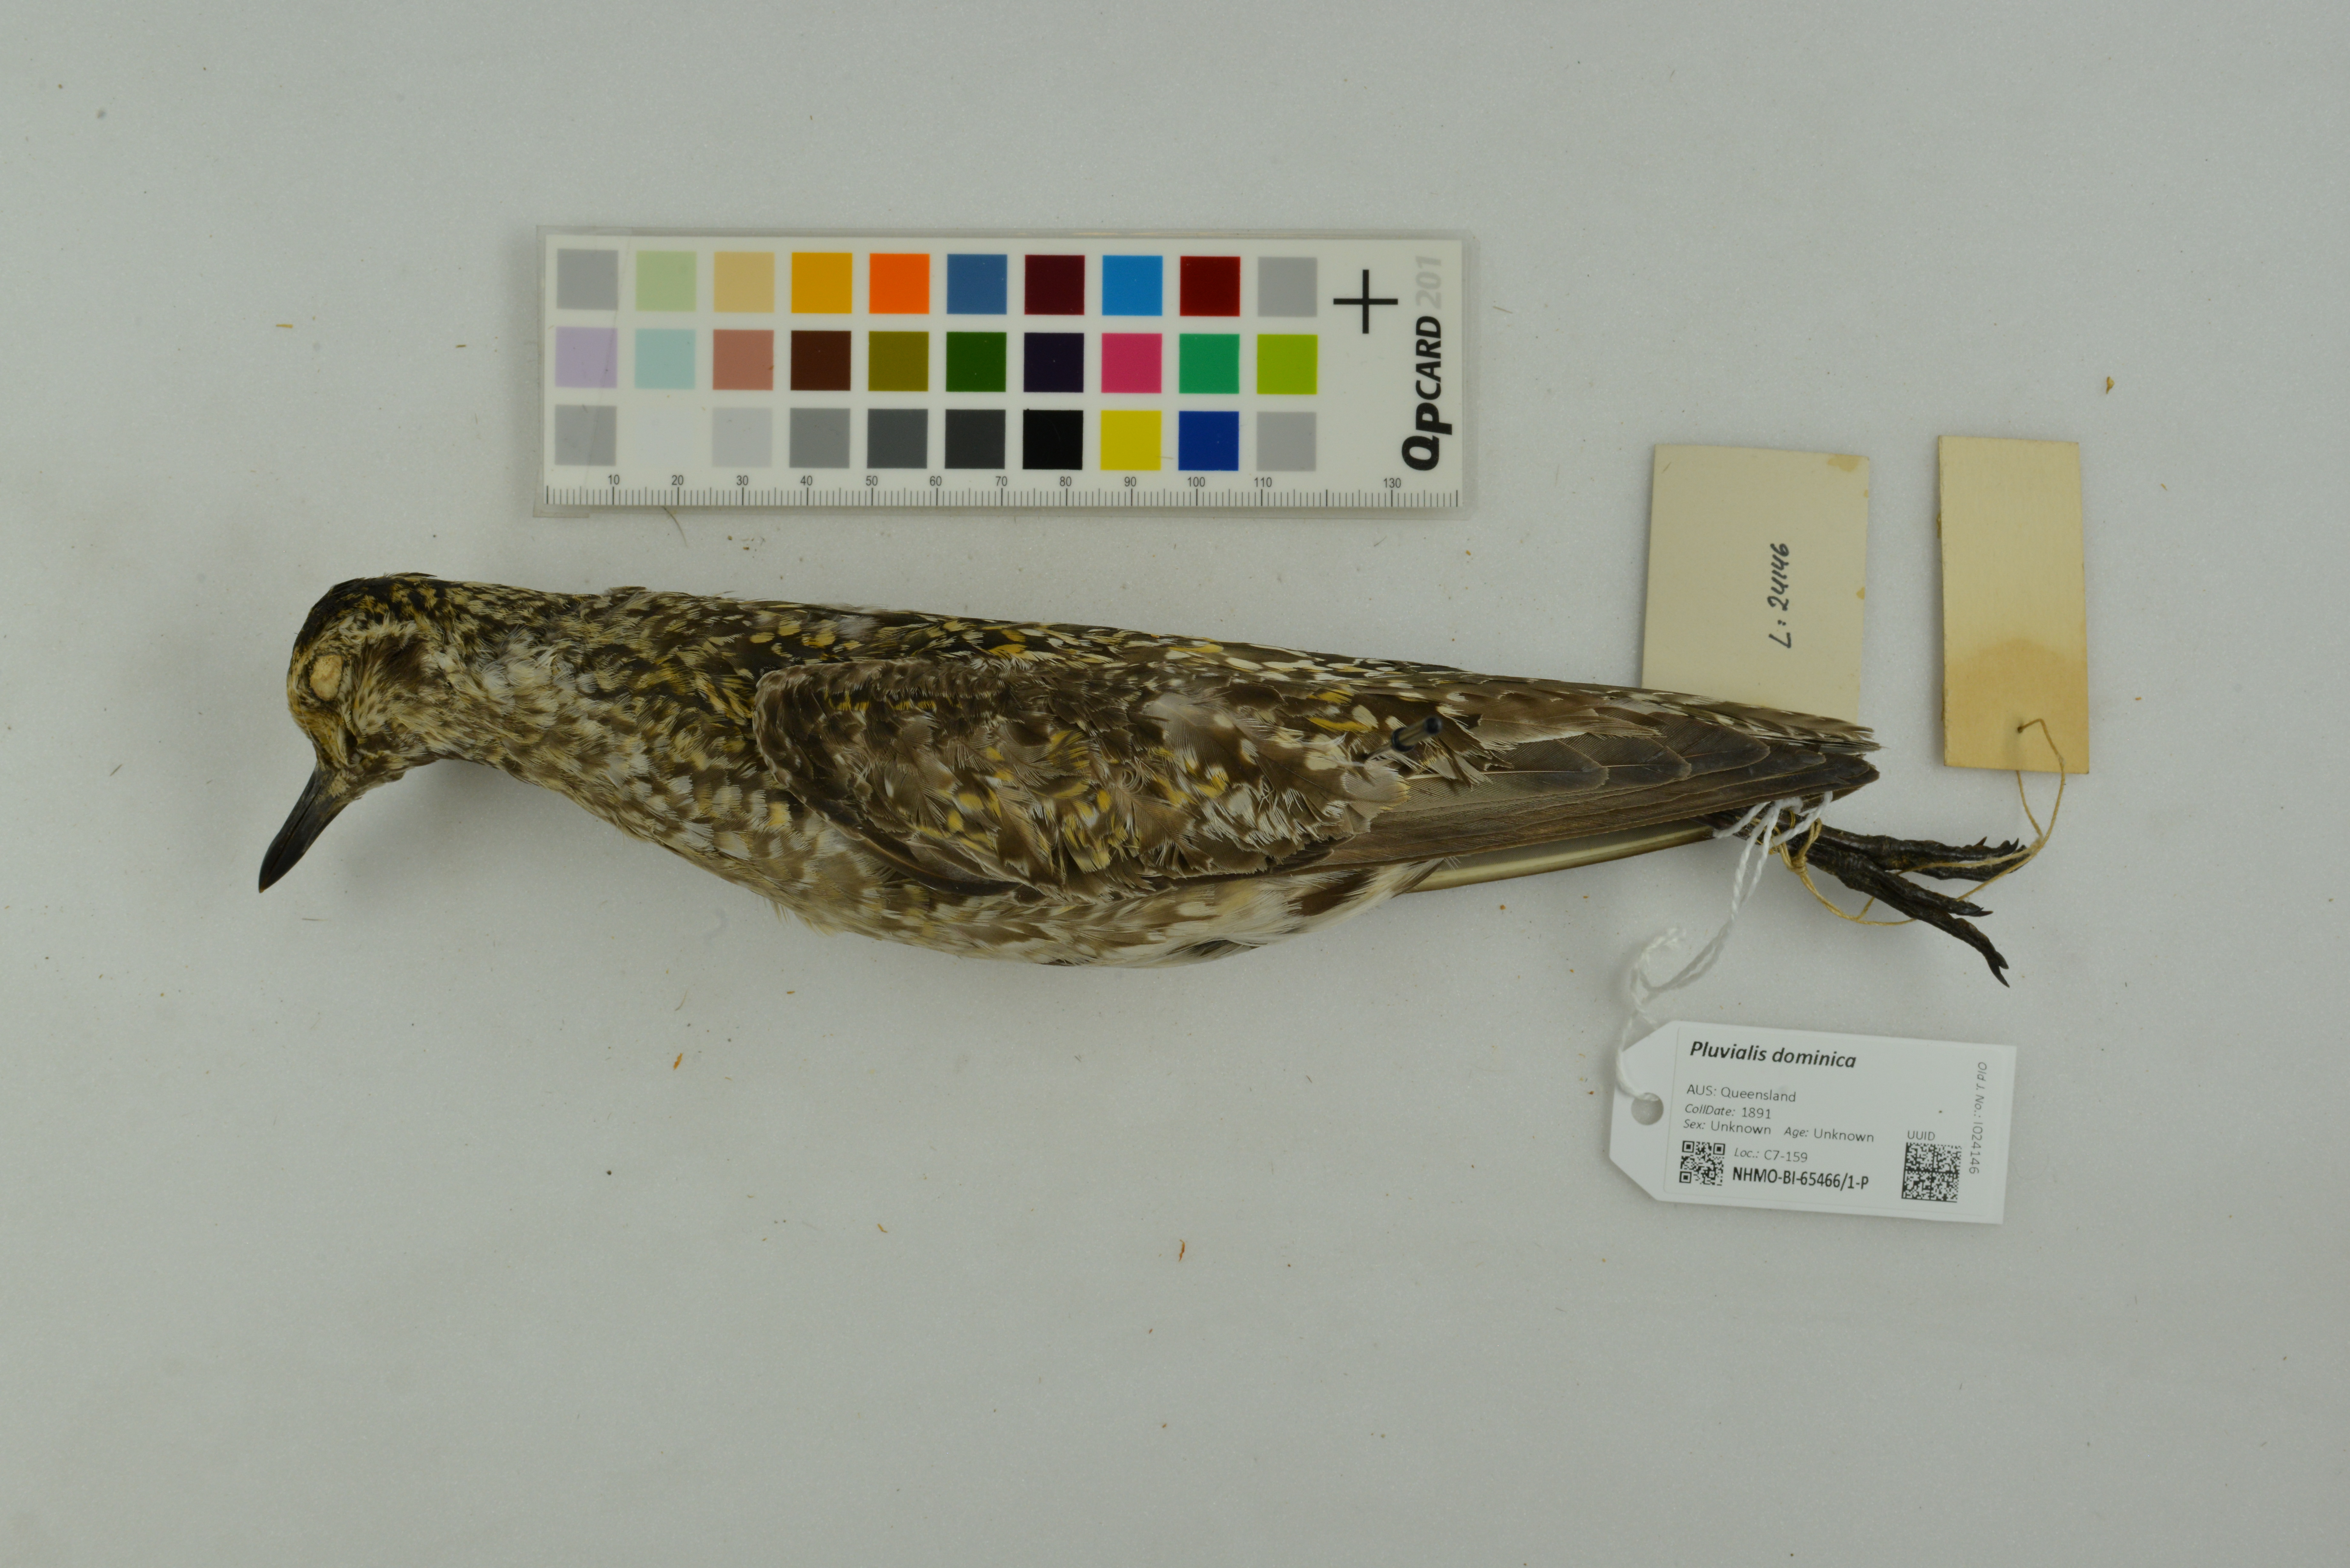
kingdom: Animalia
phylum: Chordata
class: Aves
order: Charadriiformes
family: Charadriidae
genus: Pluvialis
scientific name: Pluvialis dominica
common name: American golden plover
